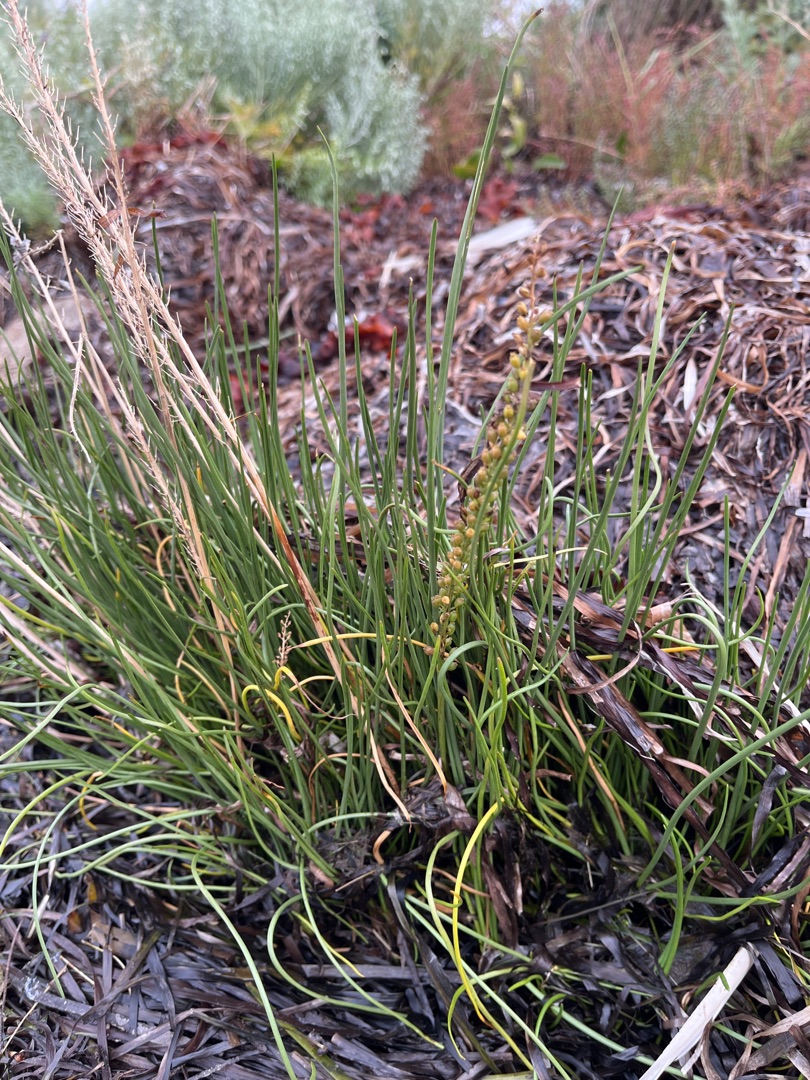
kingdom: Plantae
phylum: Tracheophyta
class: Liliopsida
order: Alismatales
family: Juncaginaceae
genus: Triglochin
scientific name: Triglochin maritima
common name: Strand-trehage
